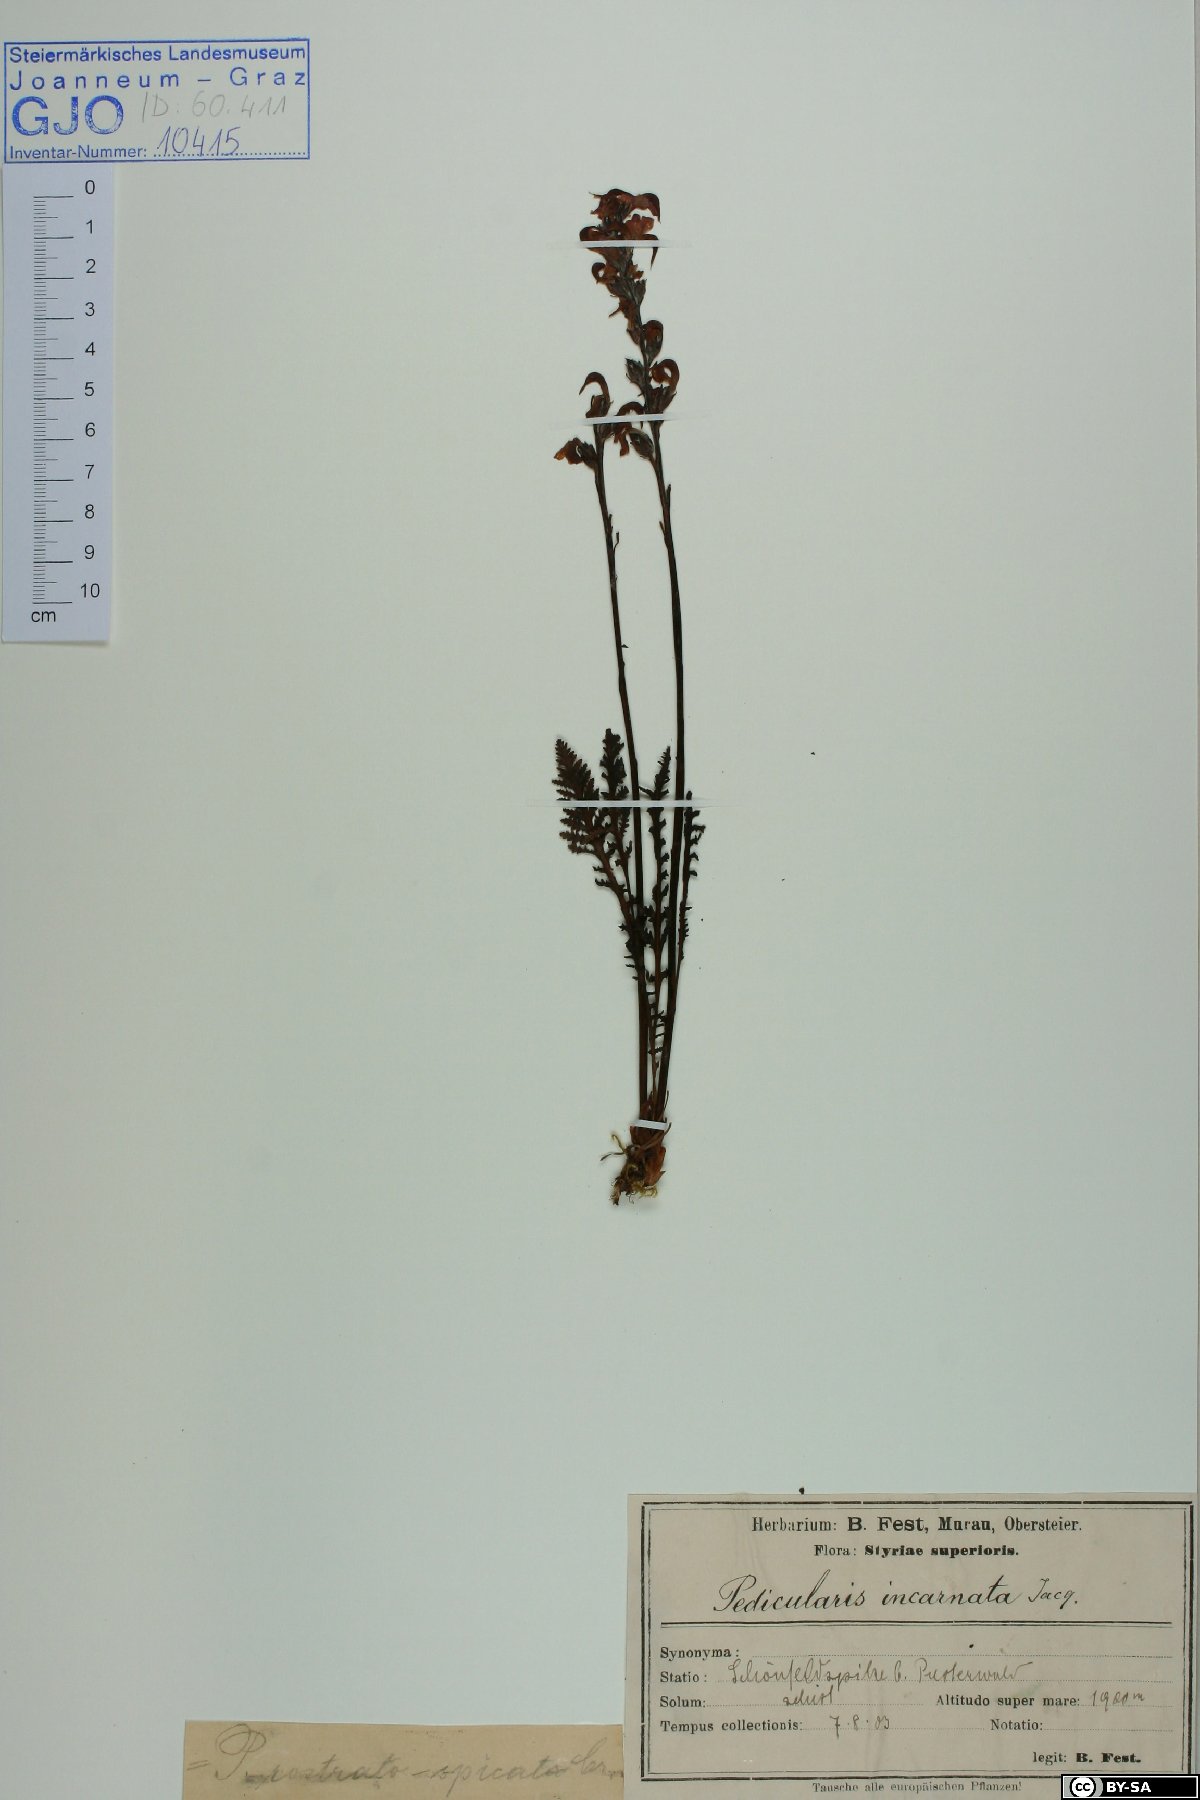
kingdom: Plantae
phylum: Tracheophyta
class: Magnoliopsida
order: Lamiales
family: Orobanchaceae
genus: Pedicularis
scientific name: Pedicularis rostratospicata
